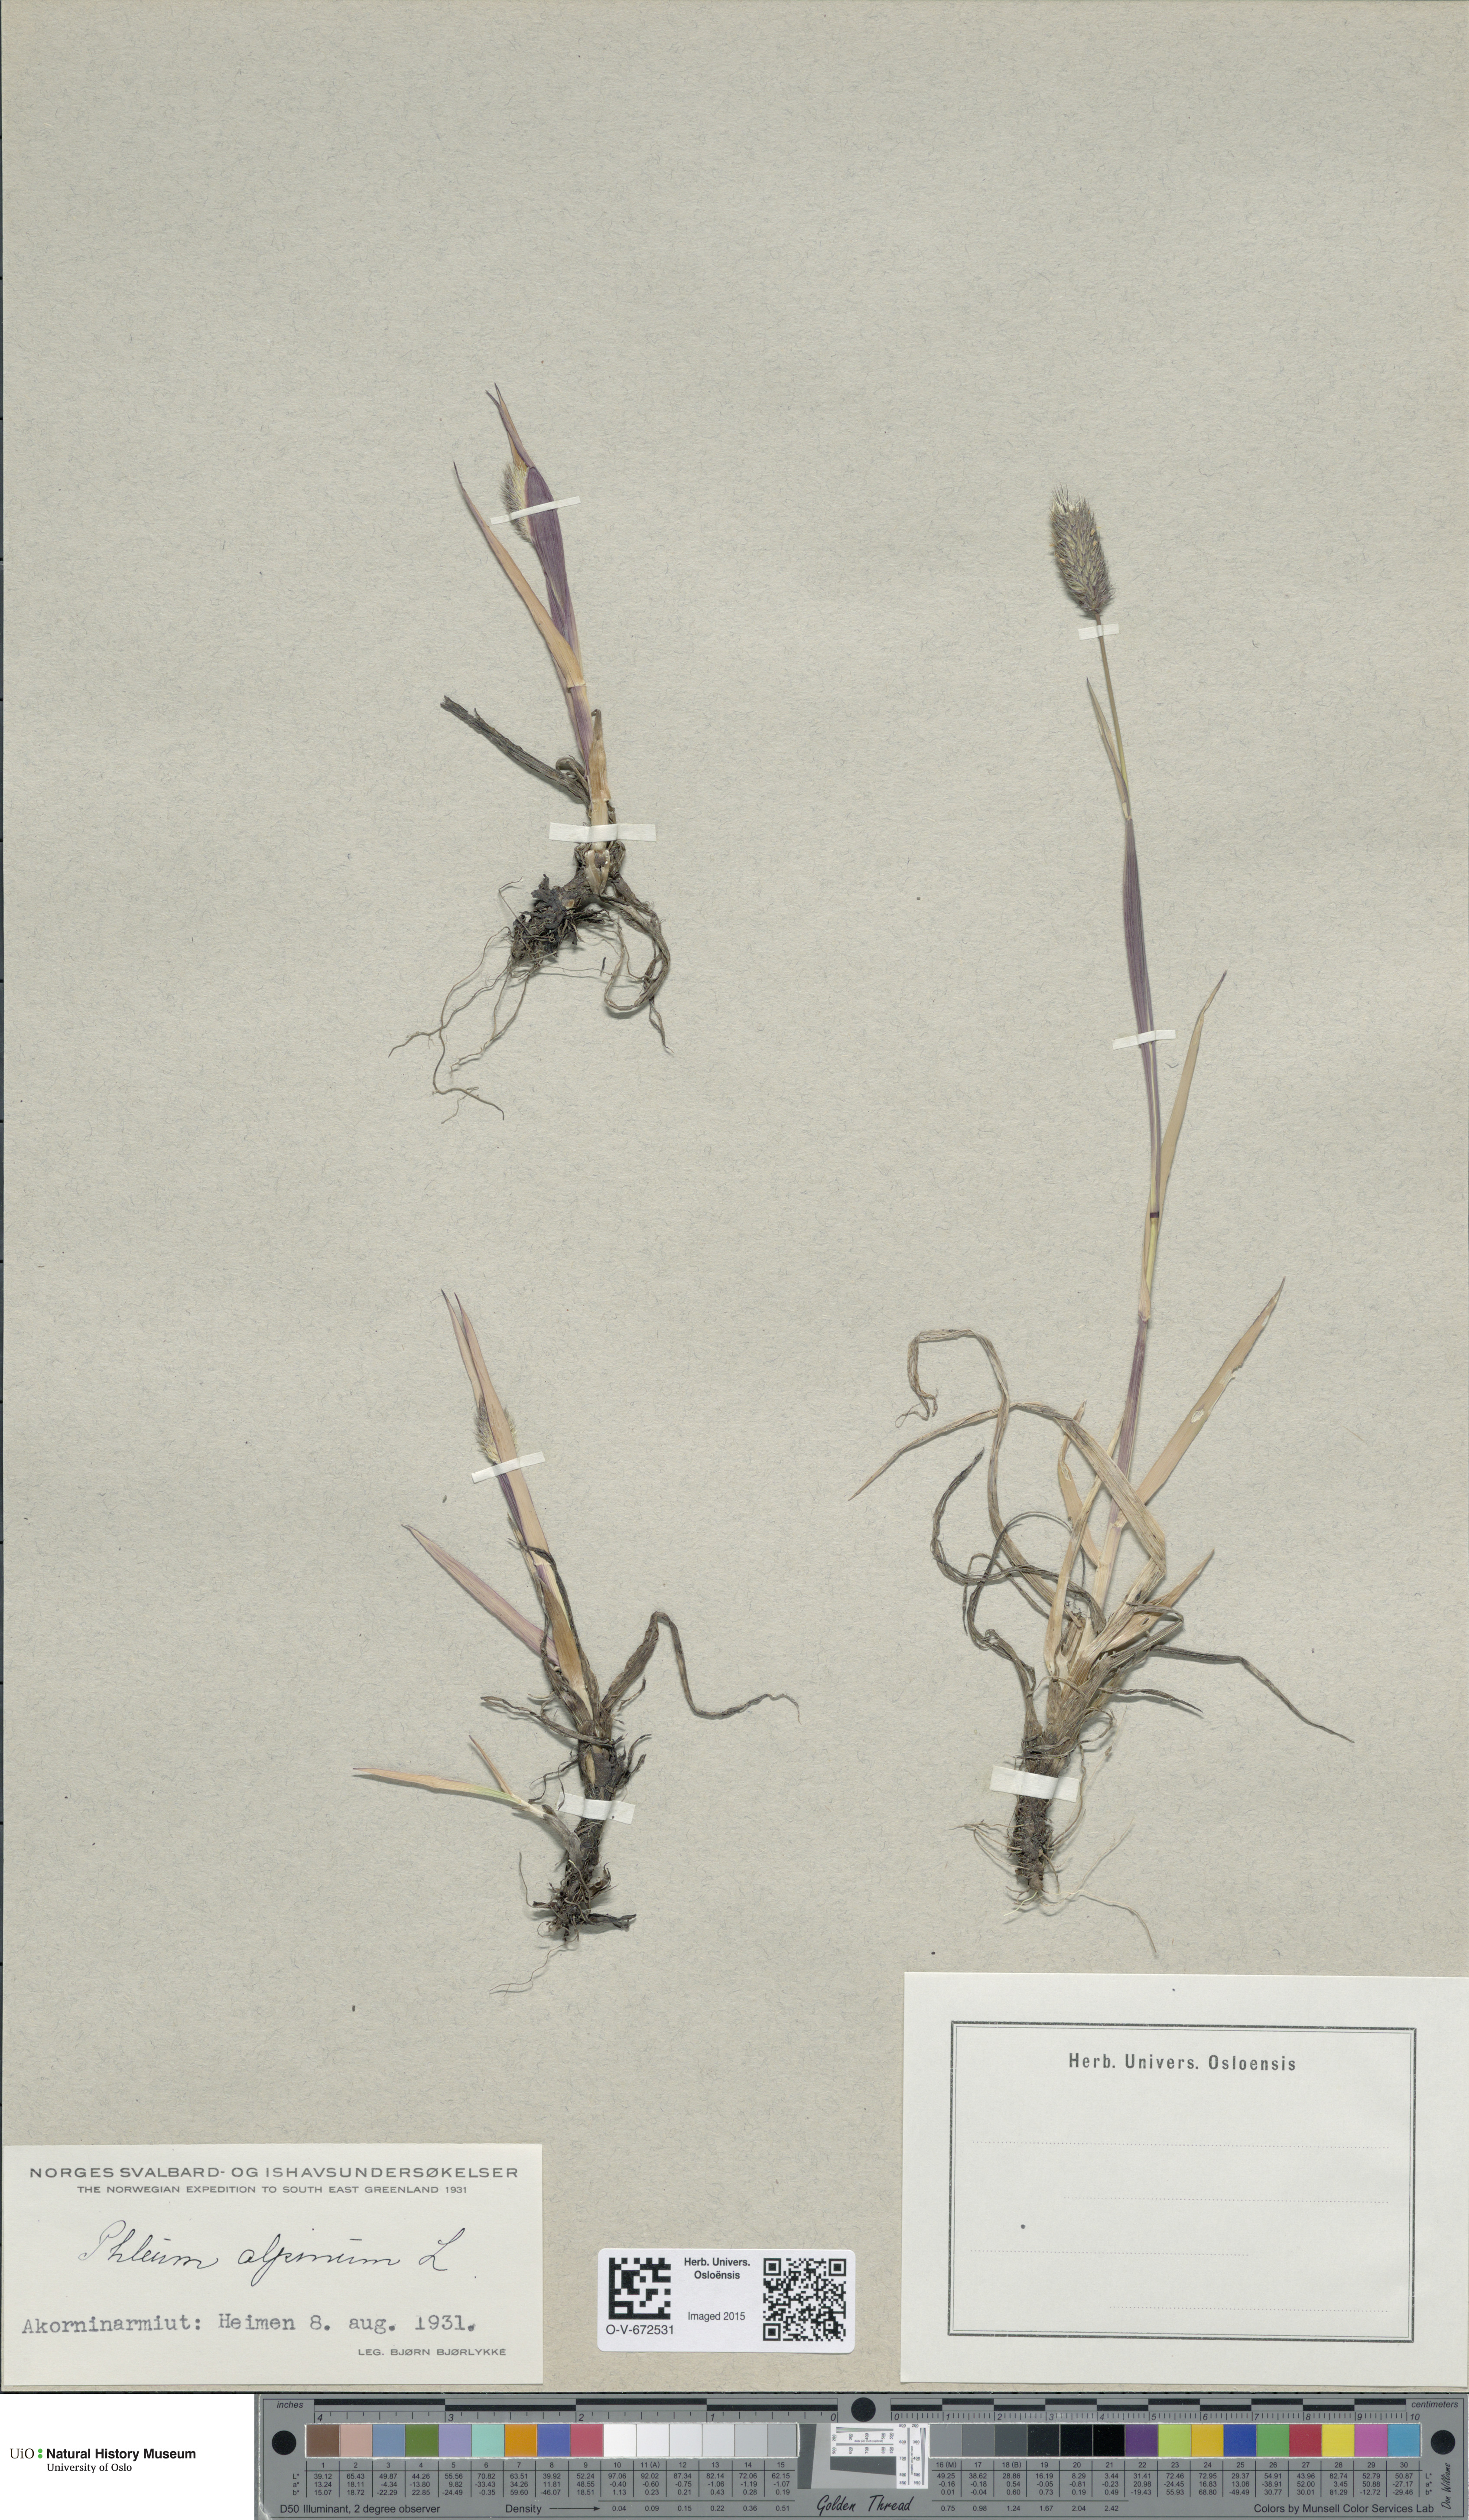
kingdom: Plantae
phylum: Tracheophyta
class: Liliopsida
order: Poales
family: Poaceae
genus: Phleum
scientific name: Phleum alpinum
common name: Alpine cat's-tail
